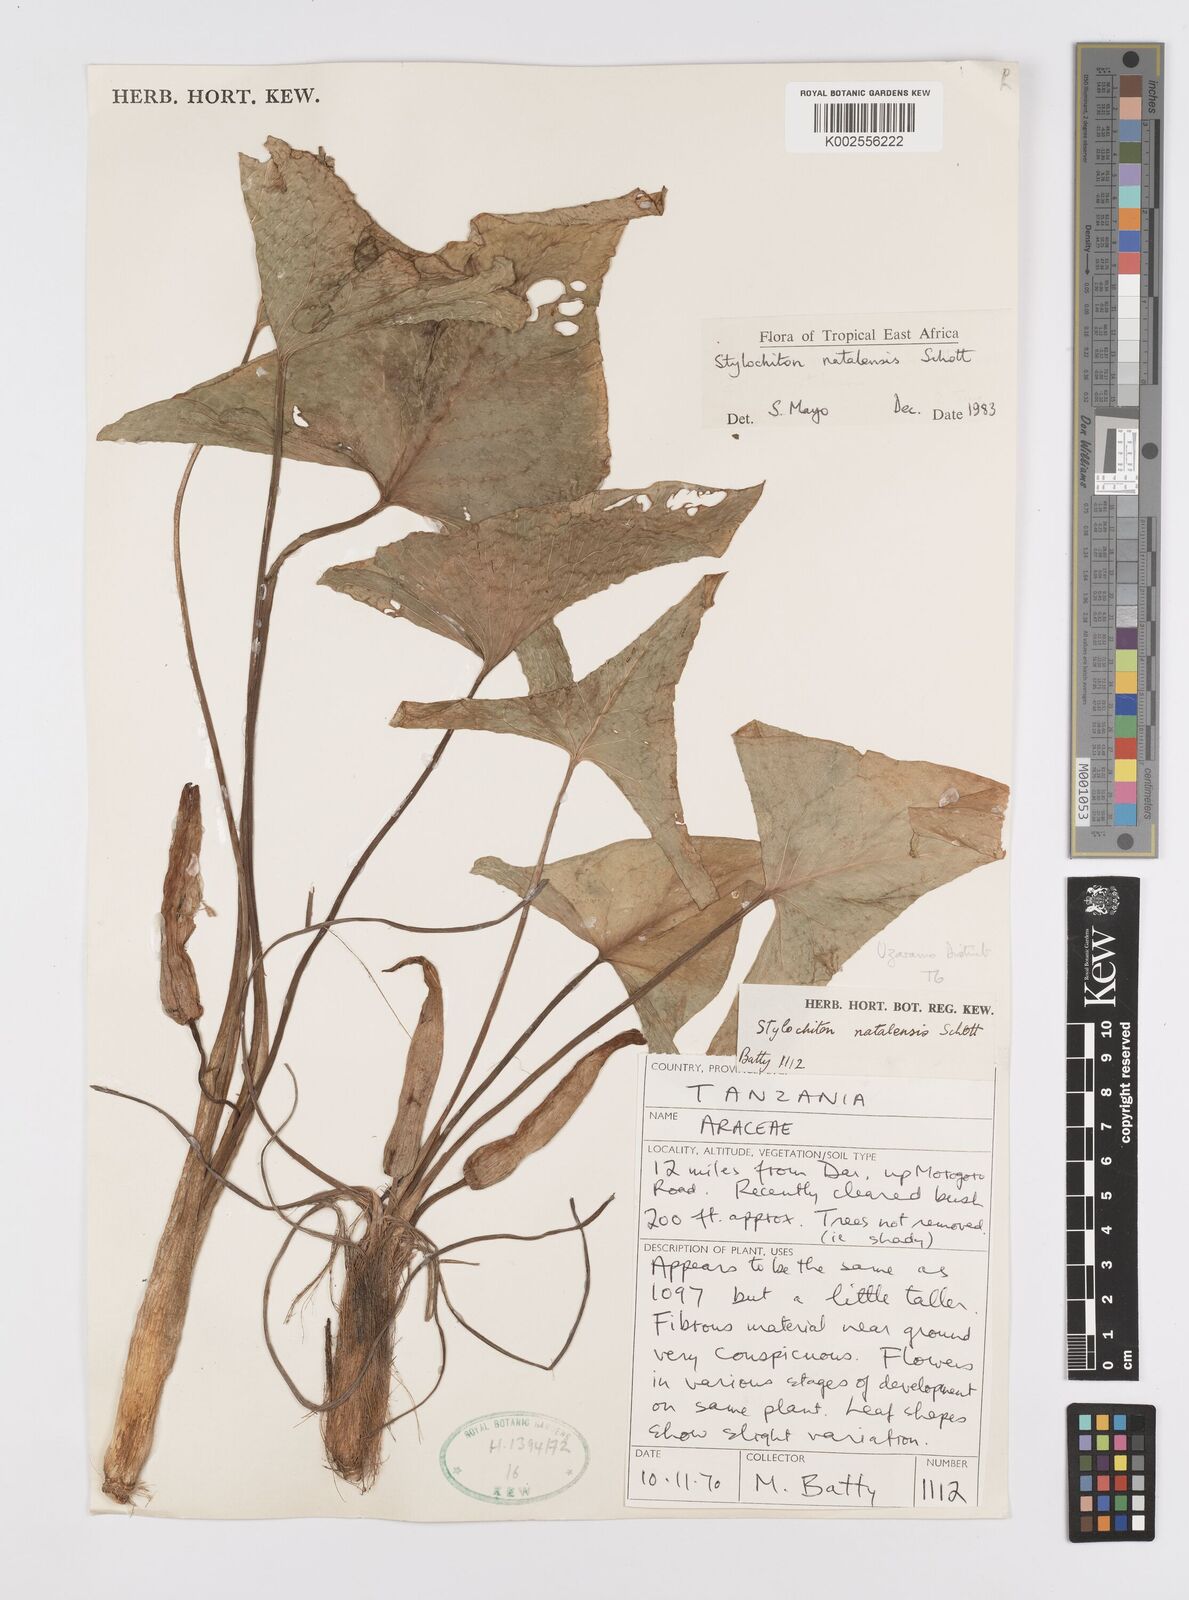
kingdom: Plantae
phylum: Tracheophyta
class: Liliopsida
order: Alismatales
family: Araceae
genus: Stylochaeton
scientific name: Stylochaeton natalense
